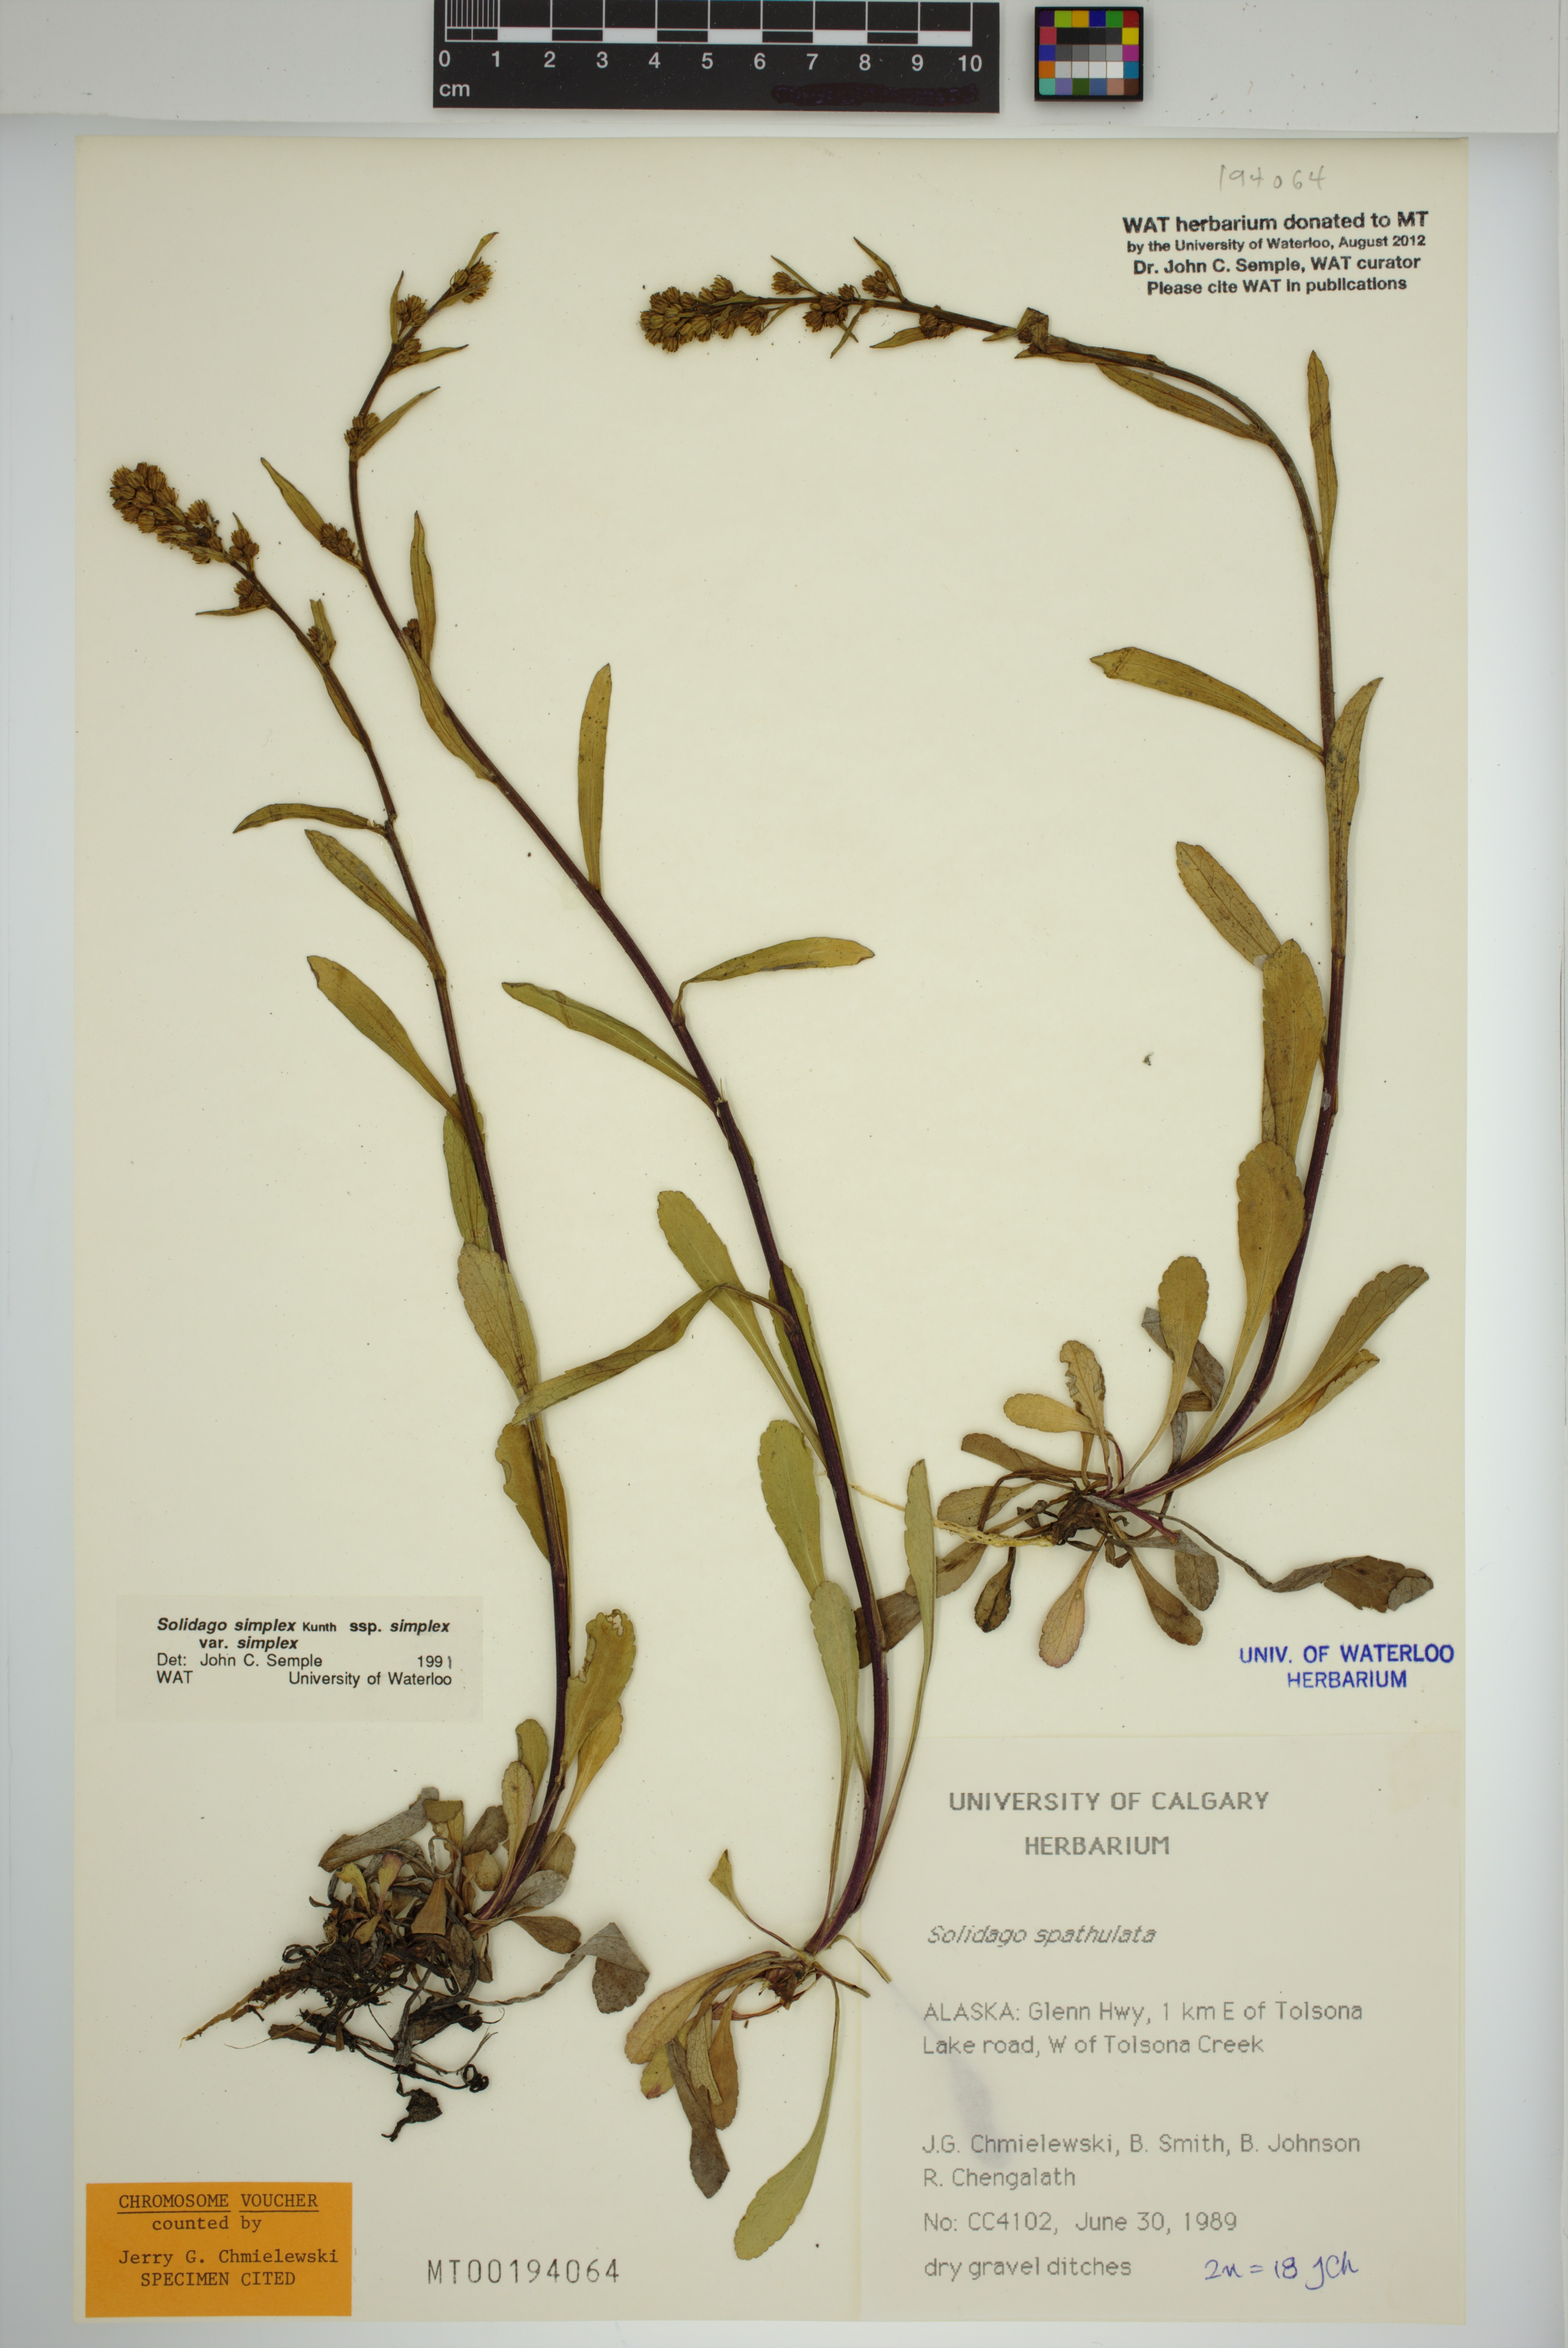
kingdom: Plantae
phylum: Tracheophyta
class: Magnoliopsida
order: Asterales
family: Asteraceae
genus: Solidago
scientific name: Solidago glutinosa
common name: Decumbent goldenrod
